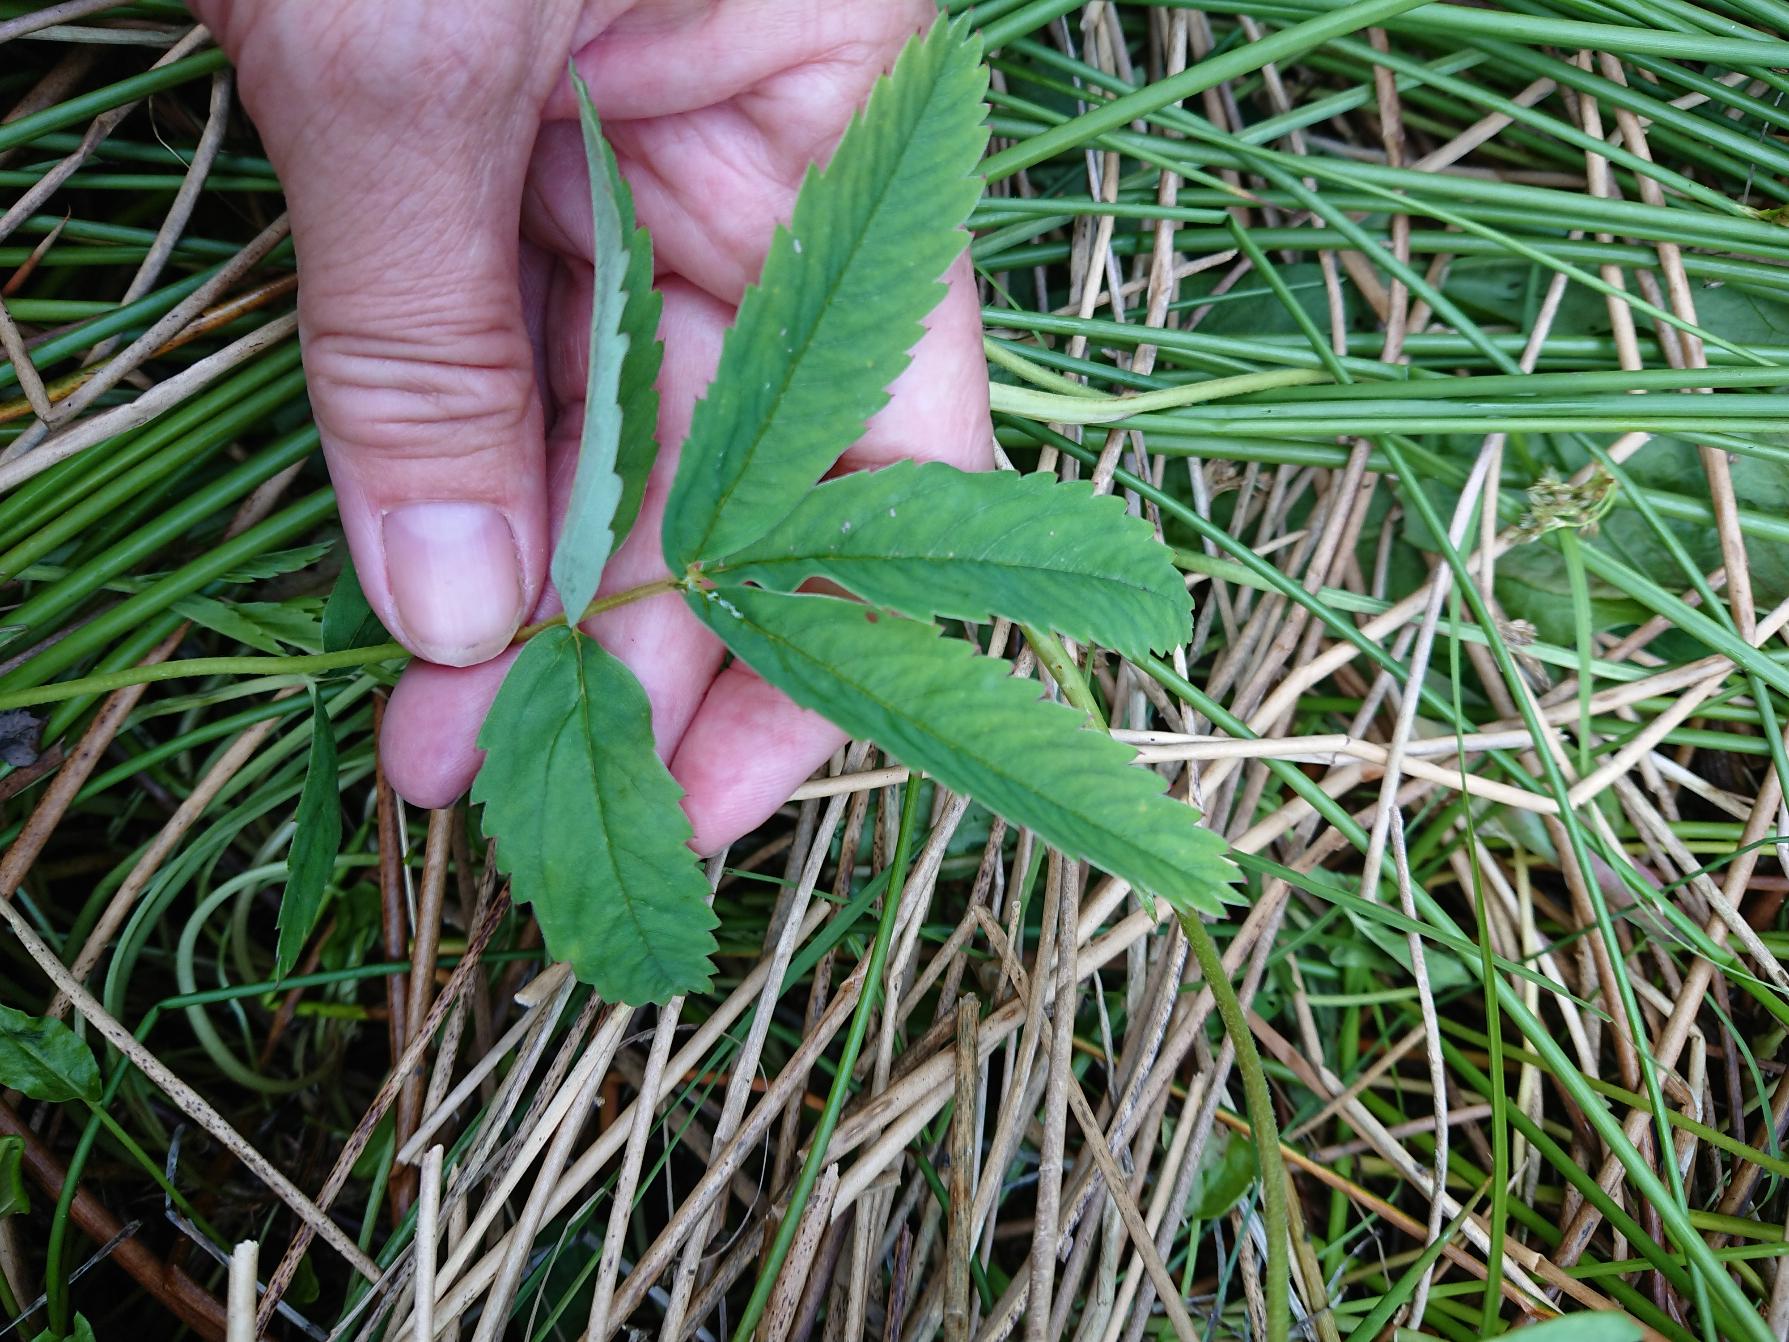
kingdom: Plantae
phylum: Tracheophyta
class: Magnoliopsida
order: Rosales
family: Rosaceae
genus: Comarum
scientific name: Comarum palustre
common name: Kragefod
